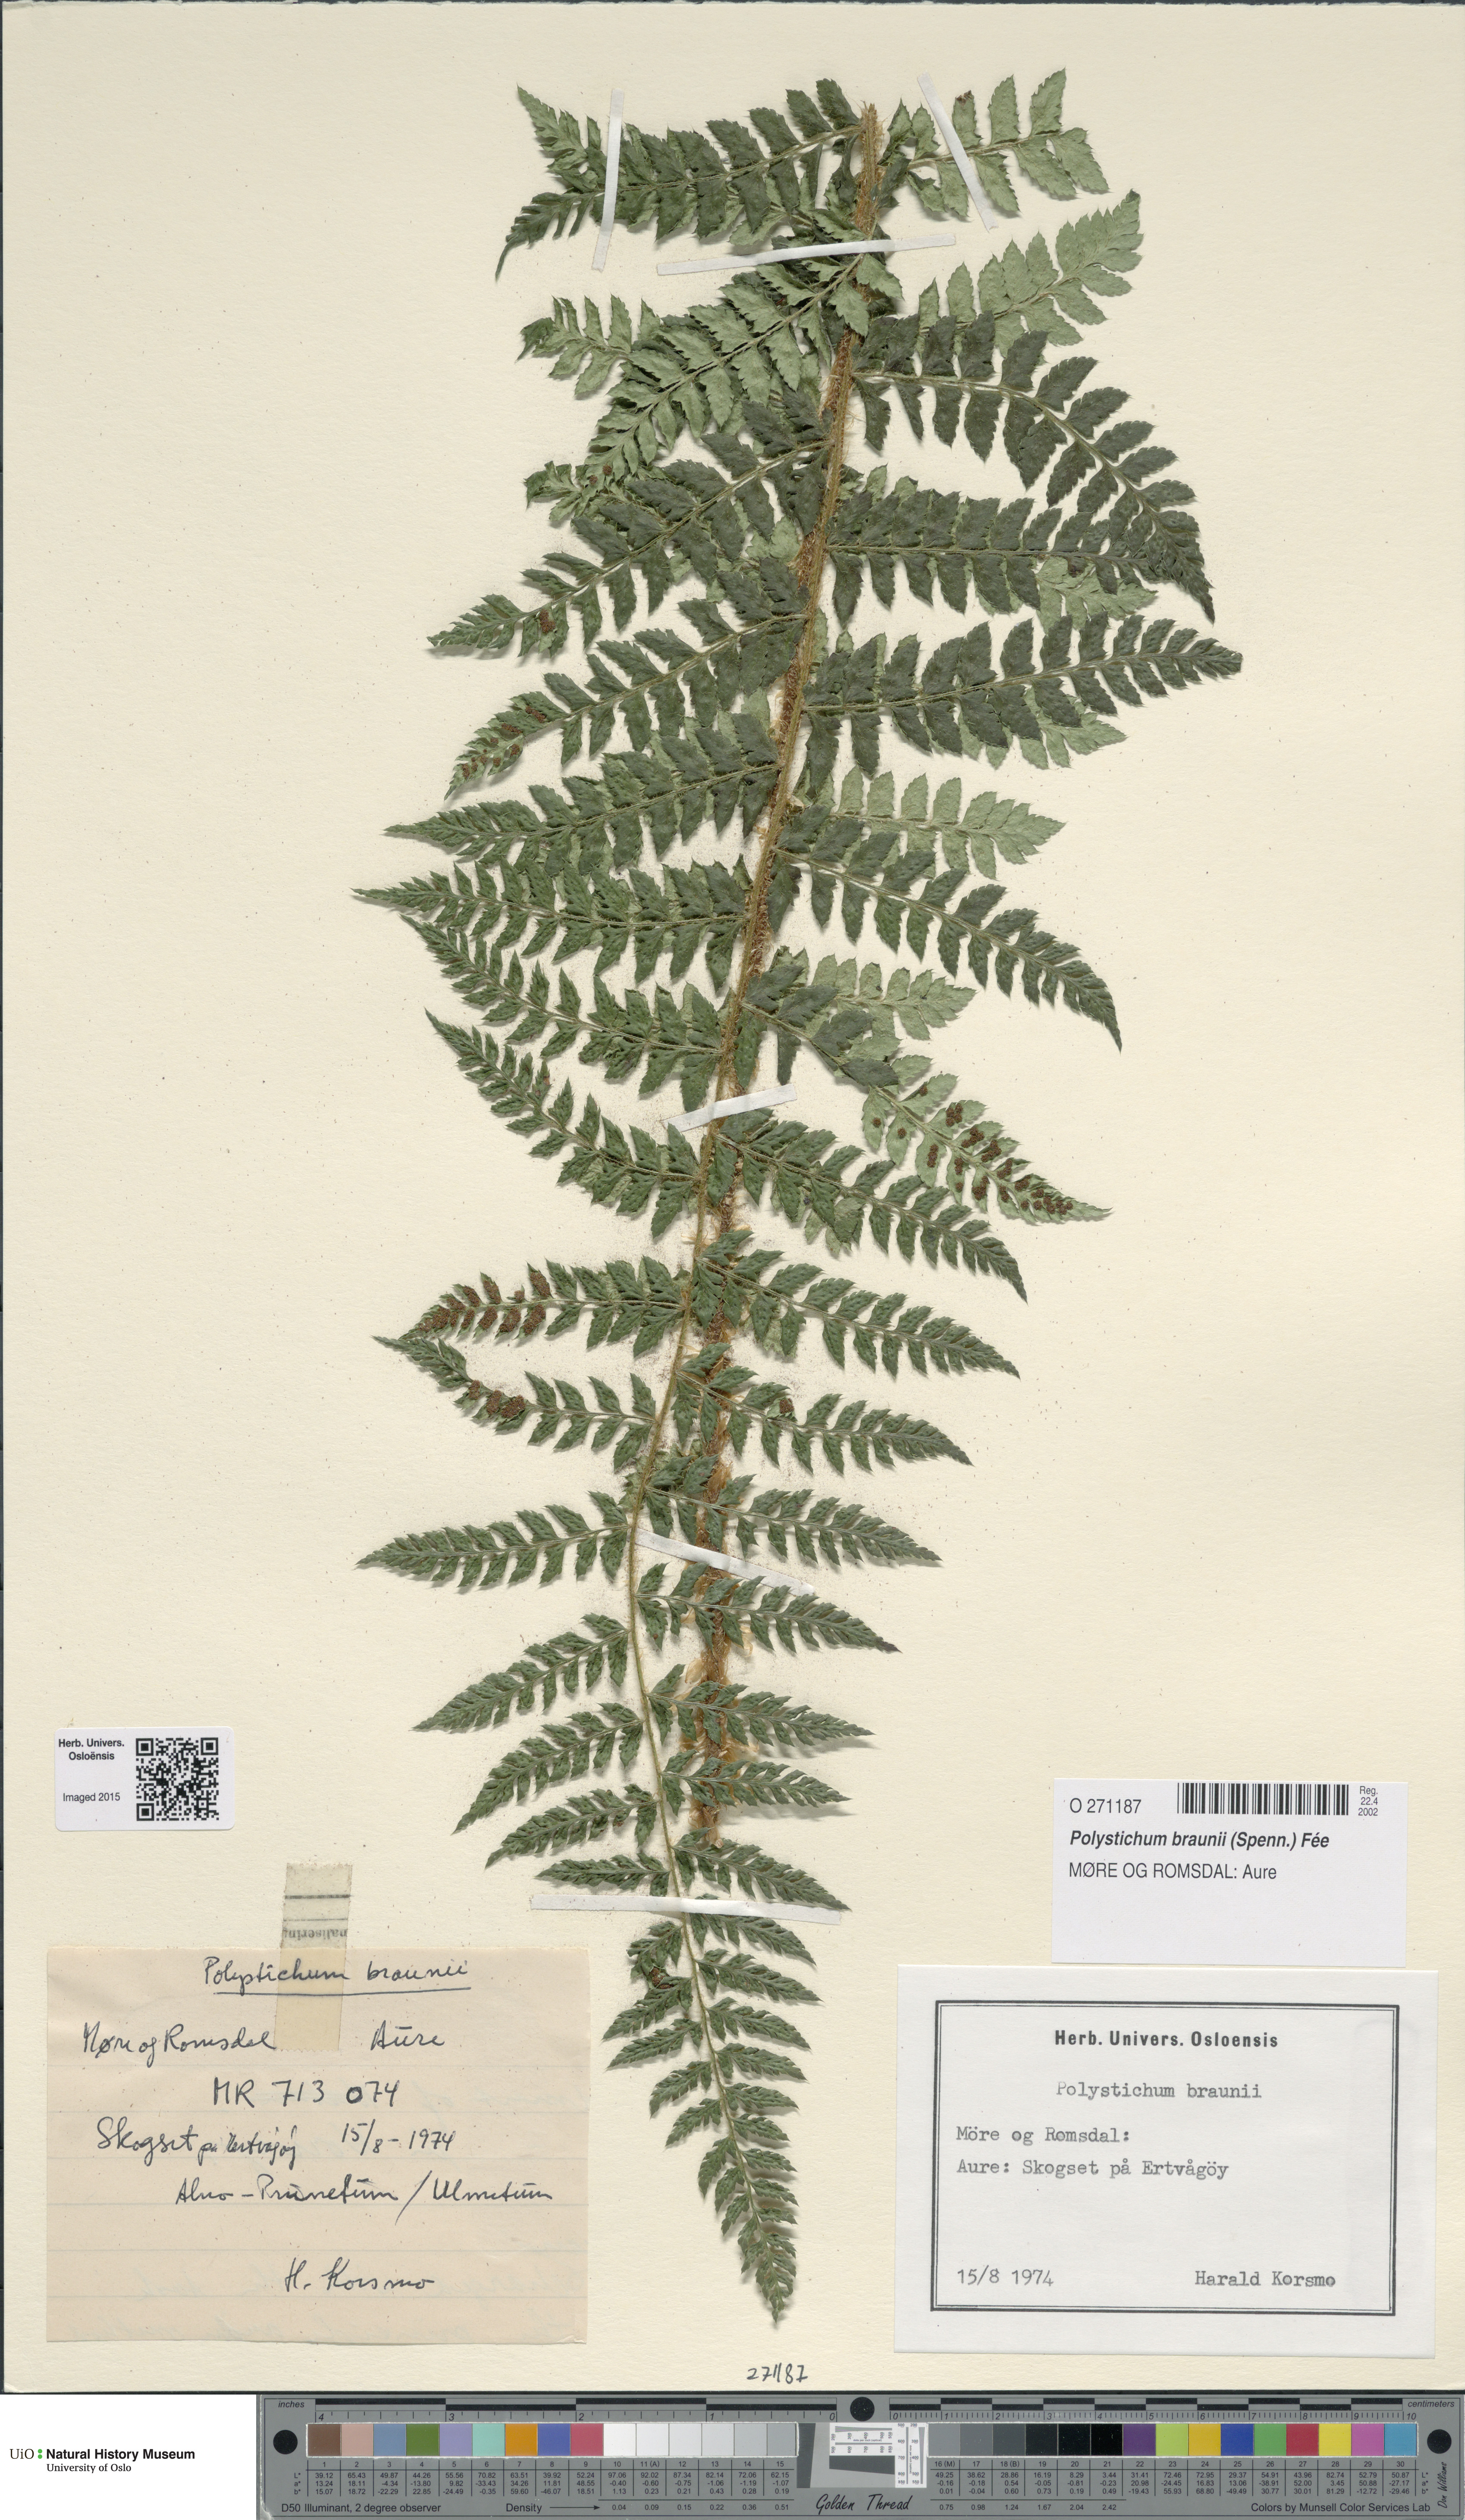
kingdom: Plantae
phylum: Tracheophyta
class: Polypodiopsida
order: Polypodiales
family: Dryopteridaceae
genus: Polystichum
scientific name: Polystichum braunii
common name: Braun's holly fern
